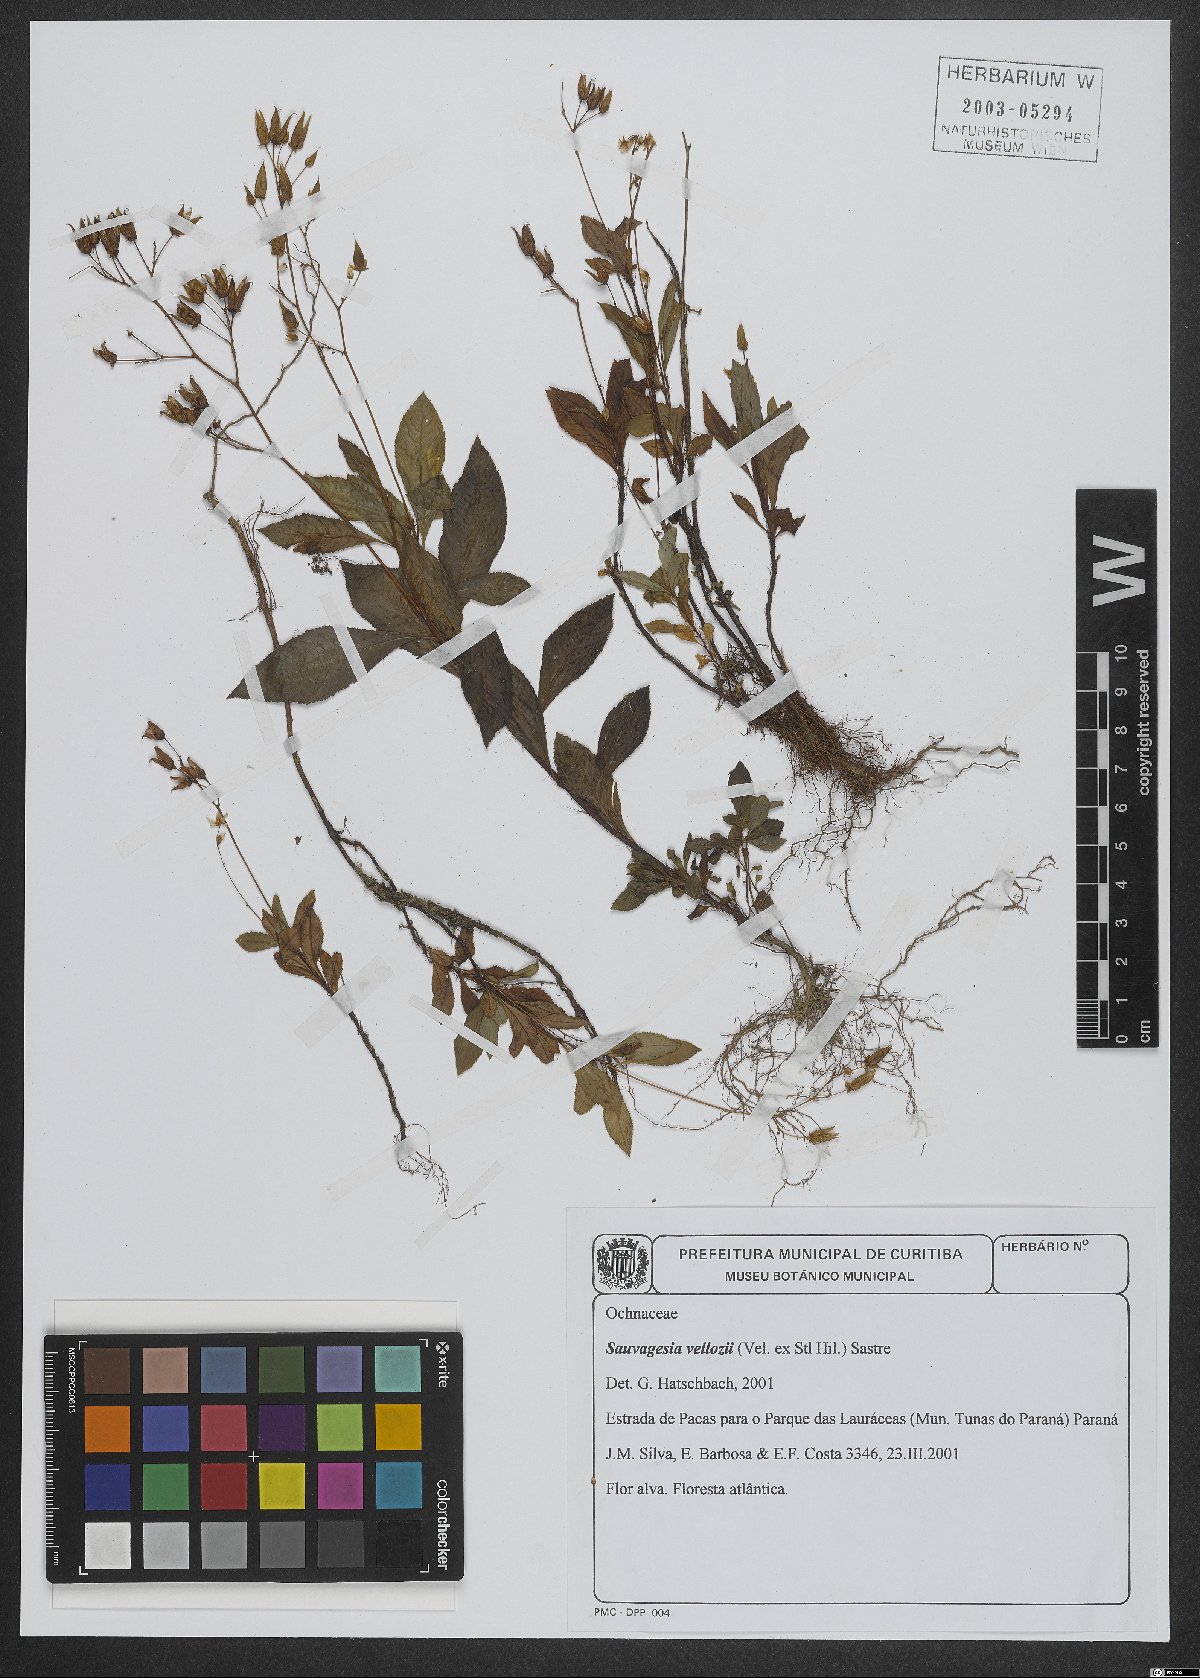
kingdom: Plantae
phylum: Tracheophyta
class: Magnoliopsida
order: Malpighiales
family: Ochnaceae
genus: Sauvagesia
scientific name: Sauvagesia vellozii
